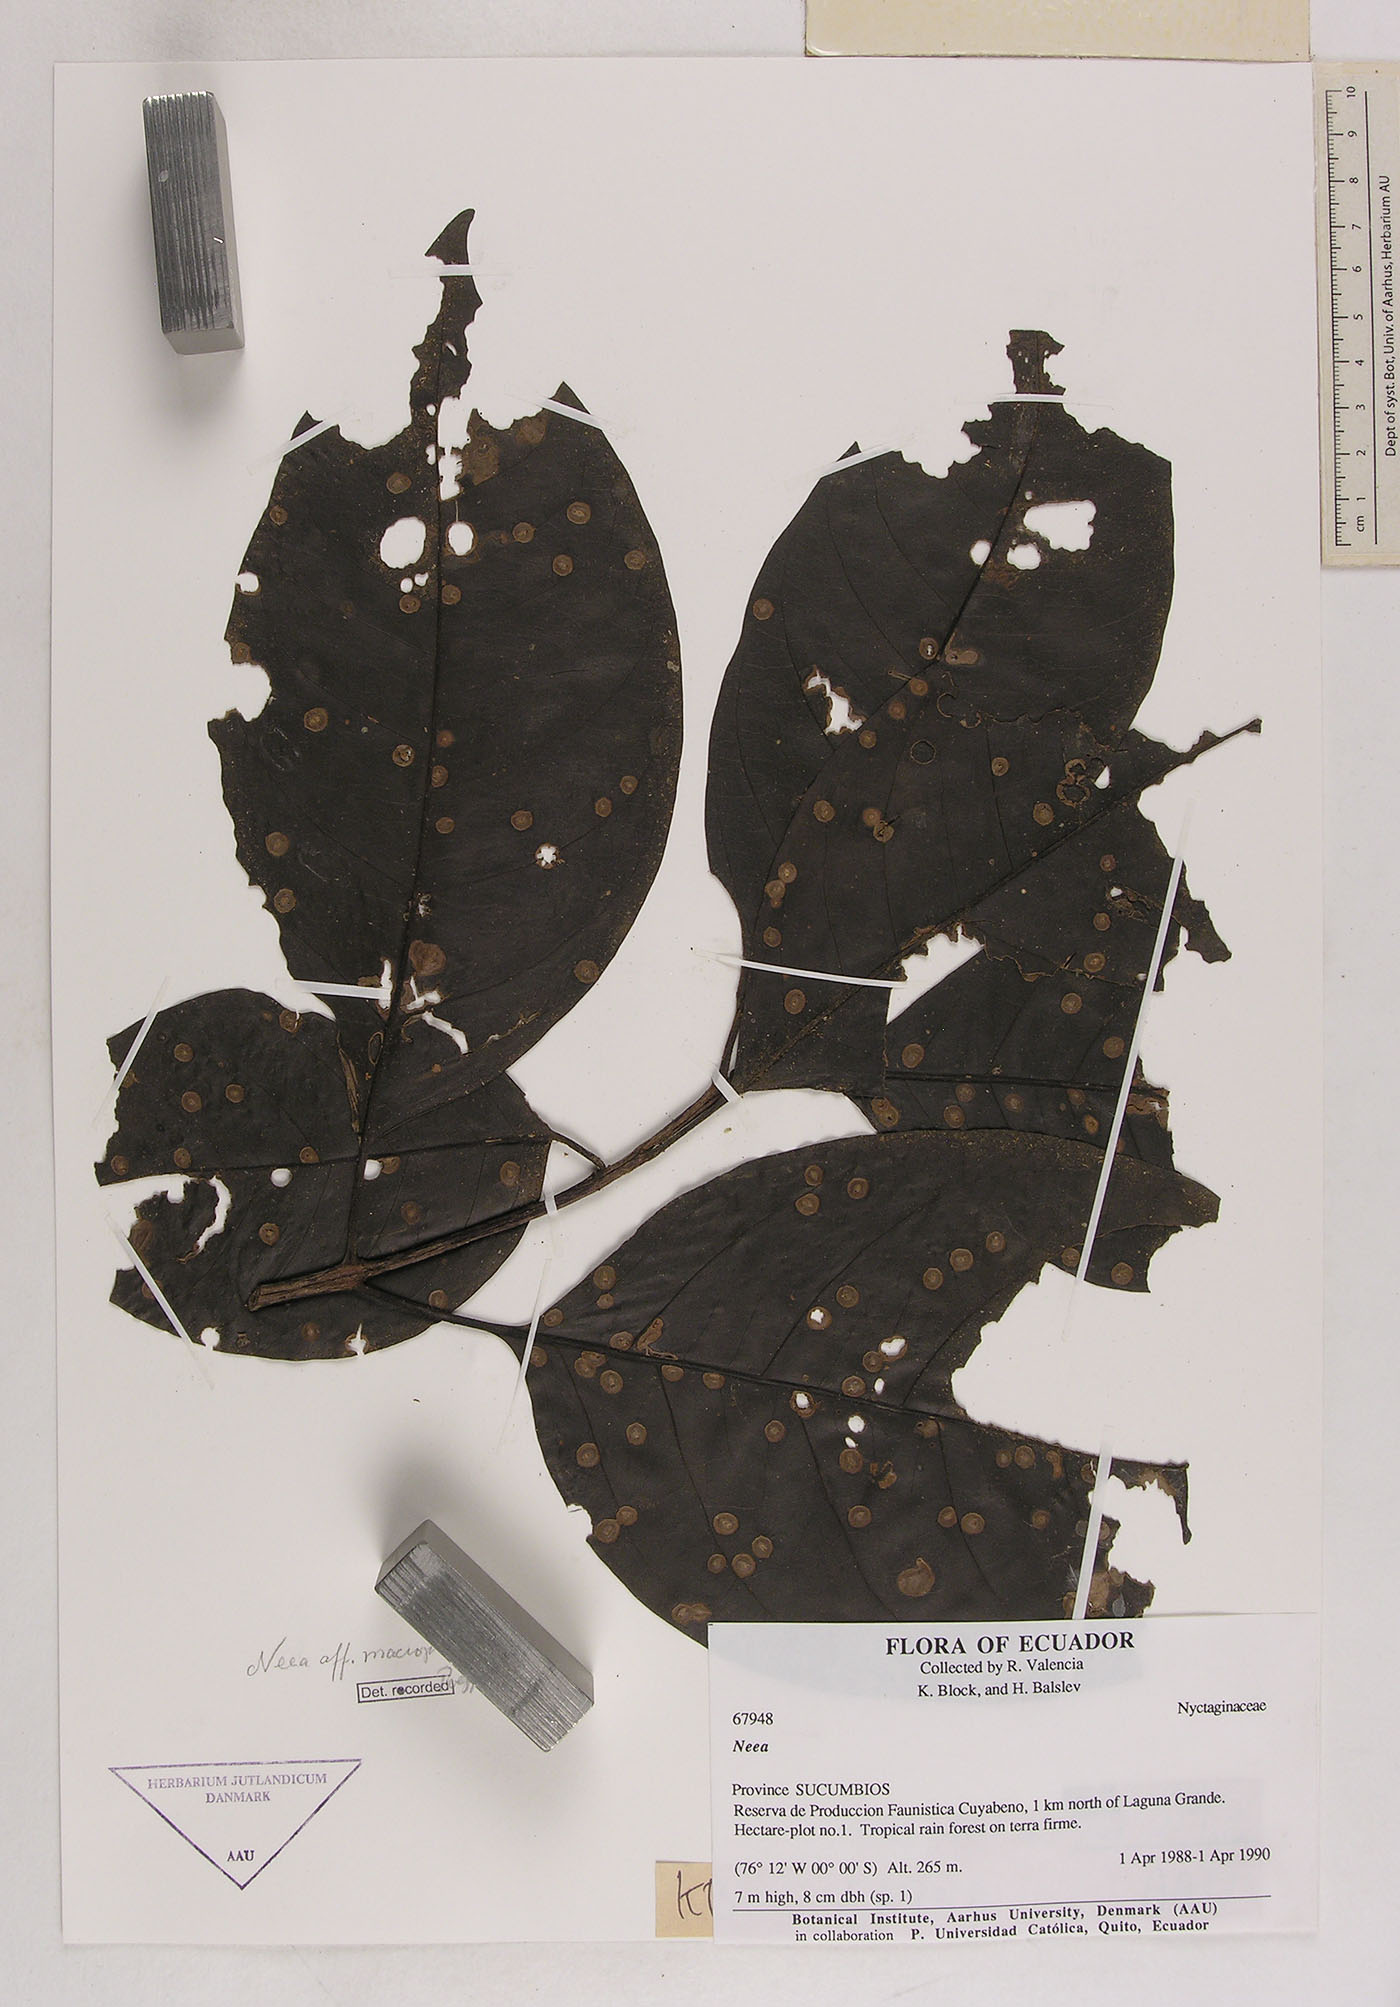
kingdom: Plantae
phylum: Tracheophyta
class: Magnoliopsida
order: Caryophyllales
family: Nyctaginaceae
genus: Neea
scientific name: Neea macrophylla
